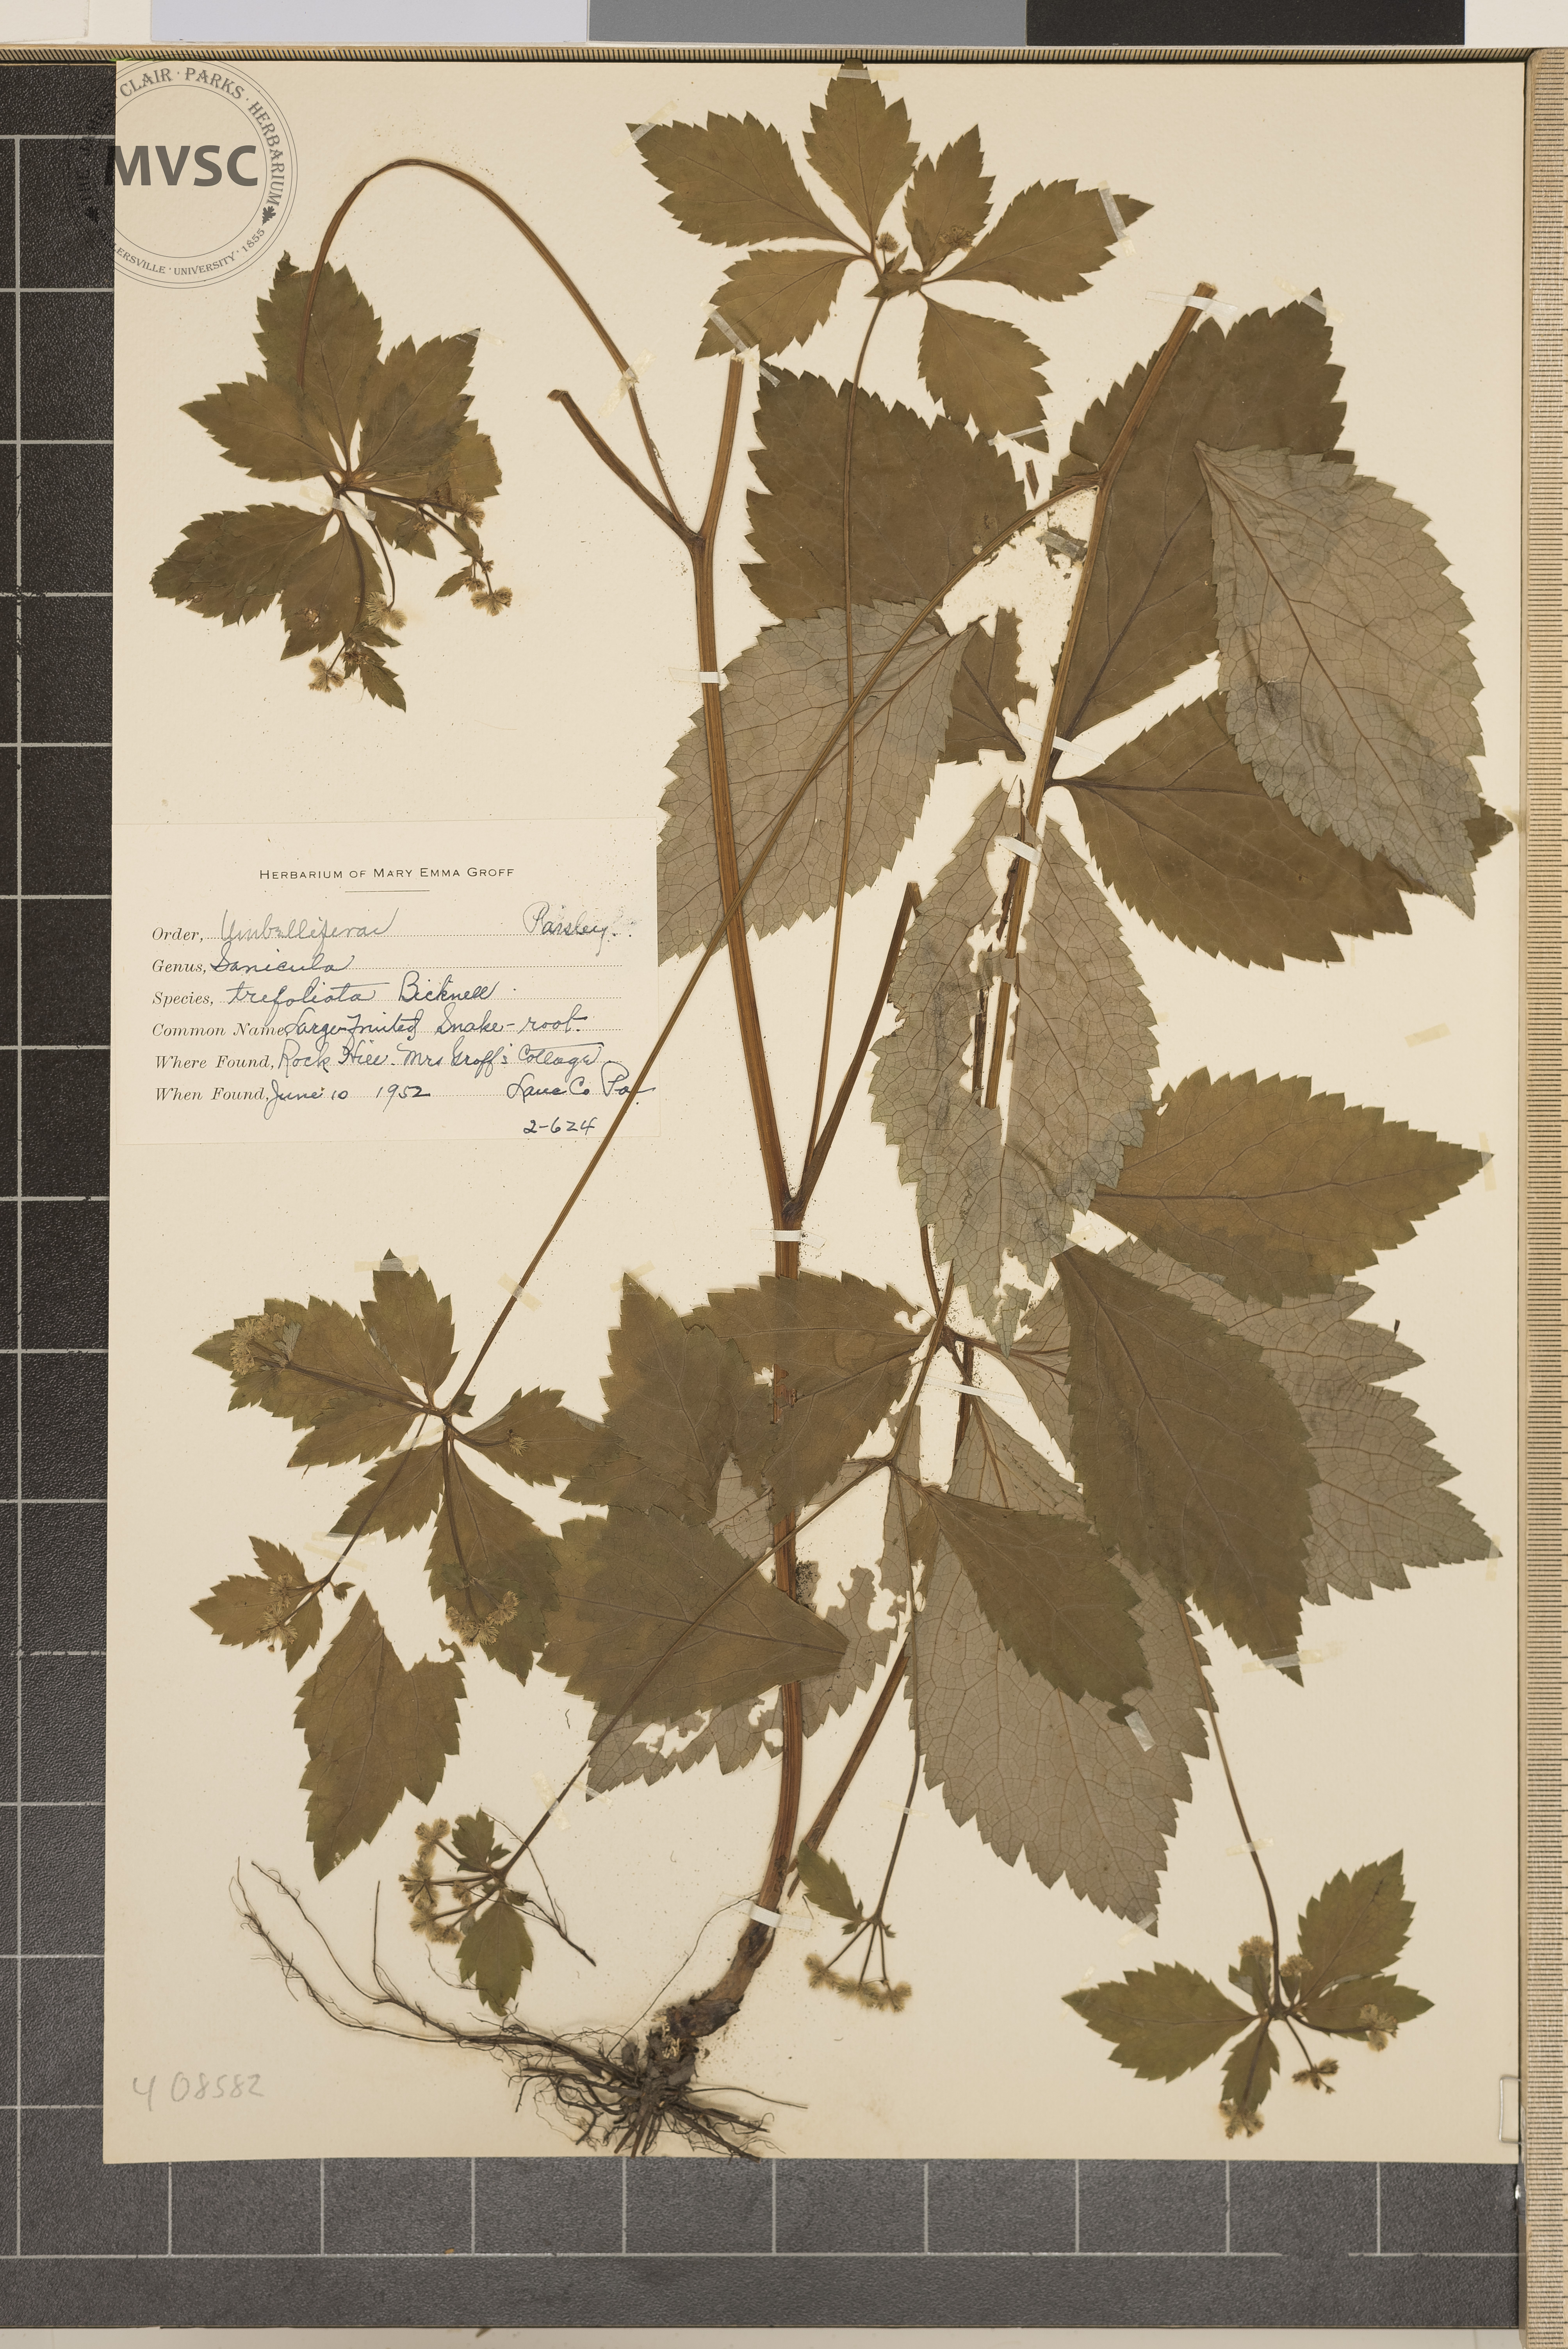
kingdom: Plantae
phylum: Tracheophyta
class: Magnoliopsida
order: Apiales
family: Apiaceae
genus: Sanicula
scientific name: Sanicula trifoliata
